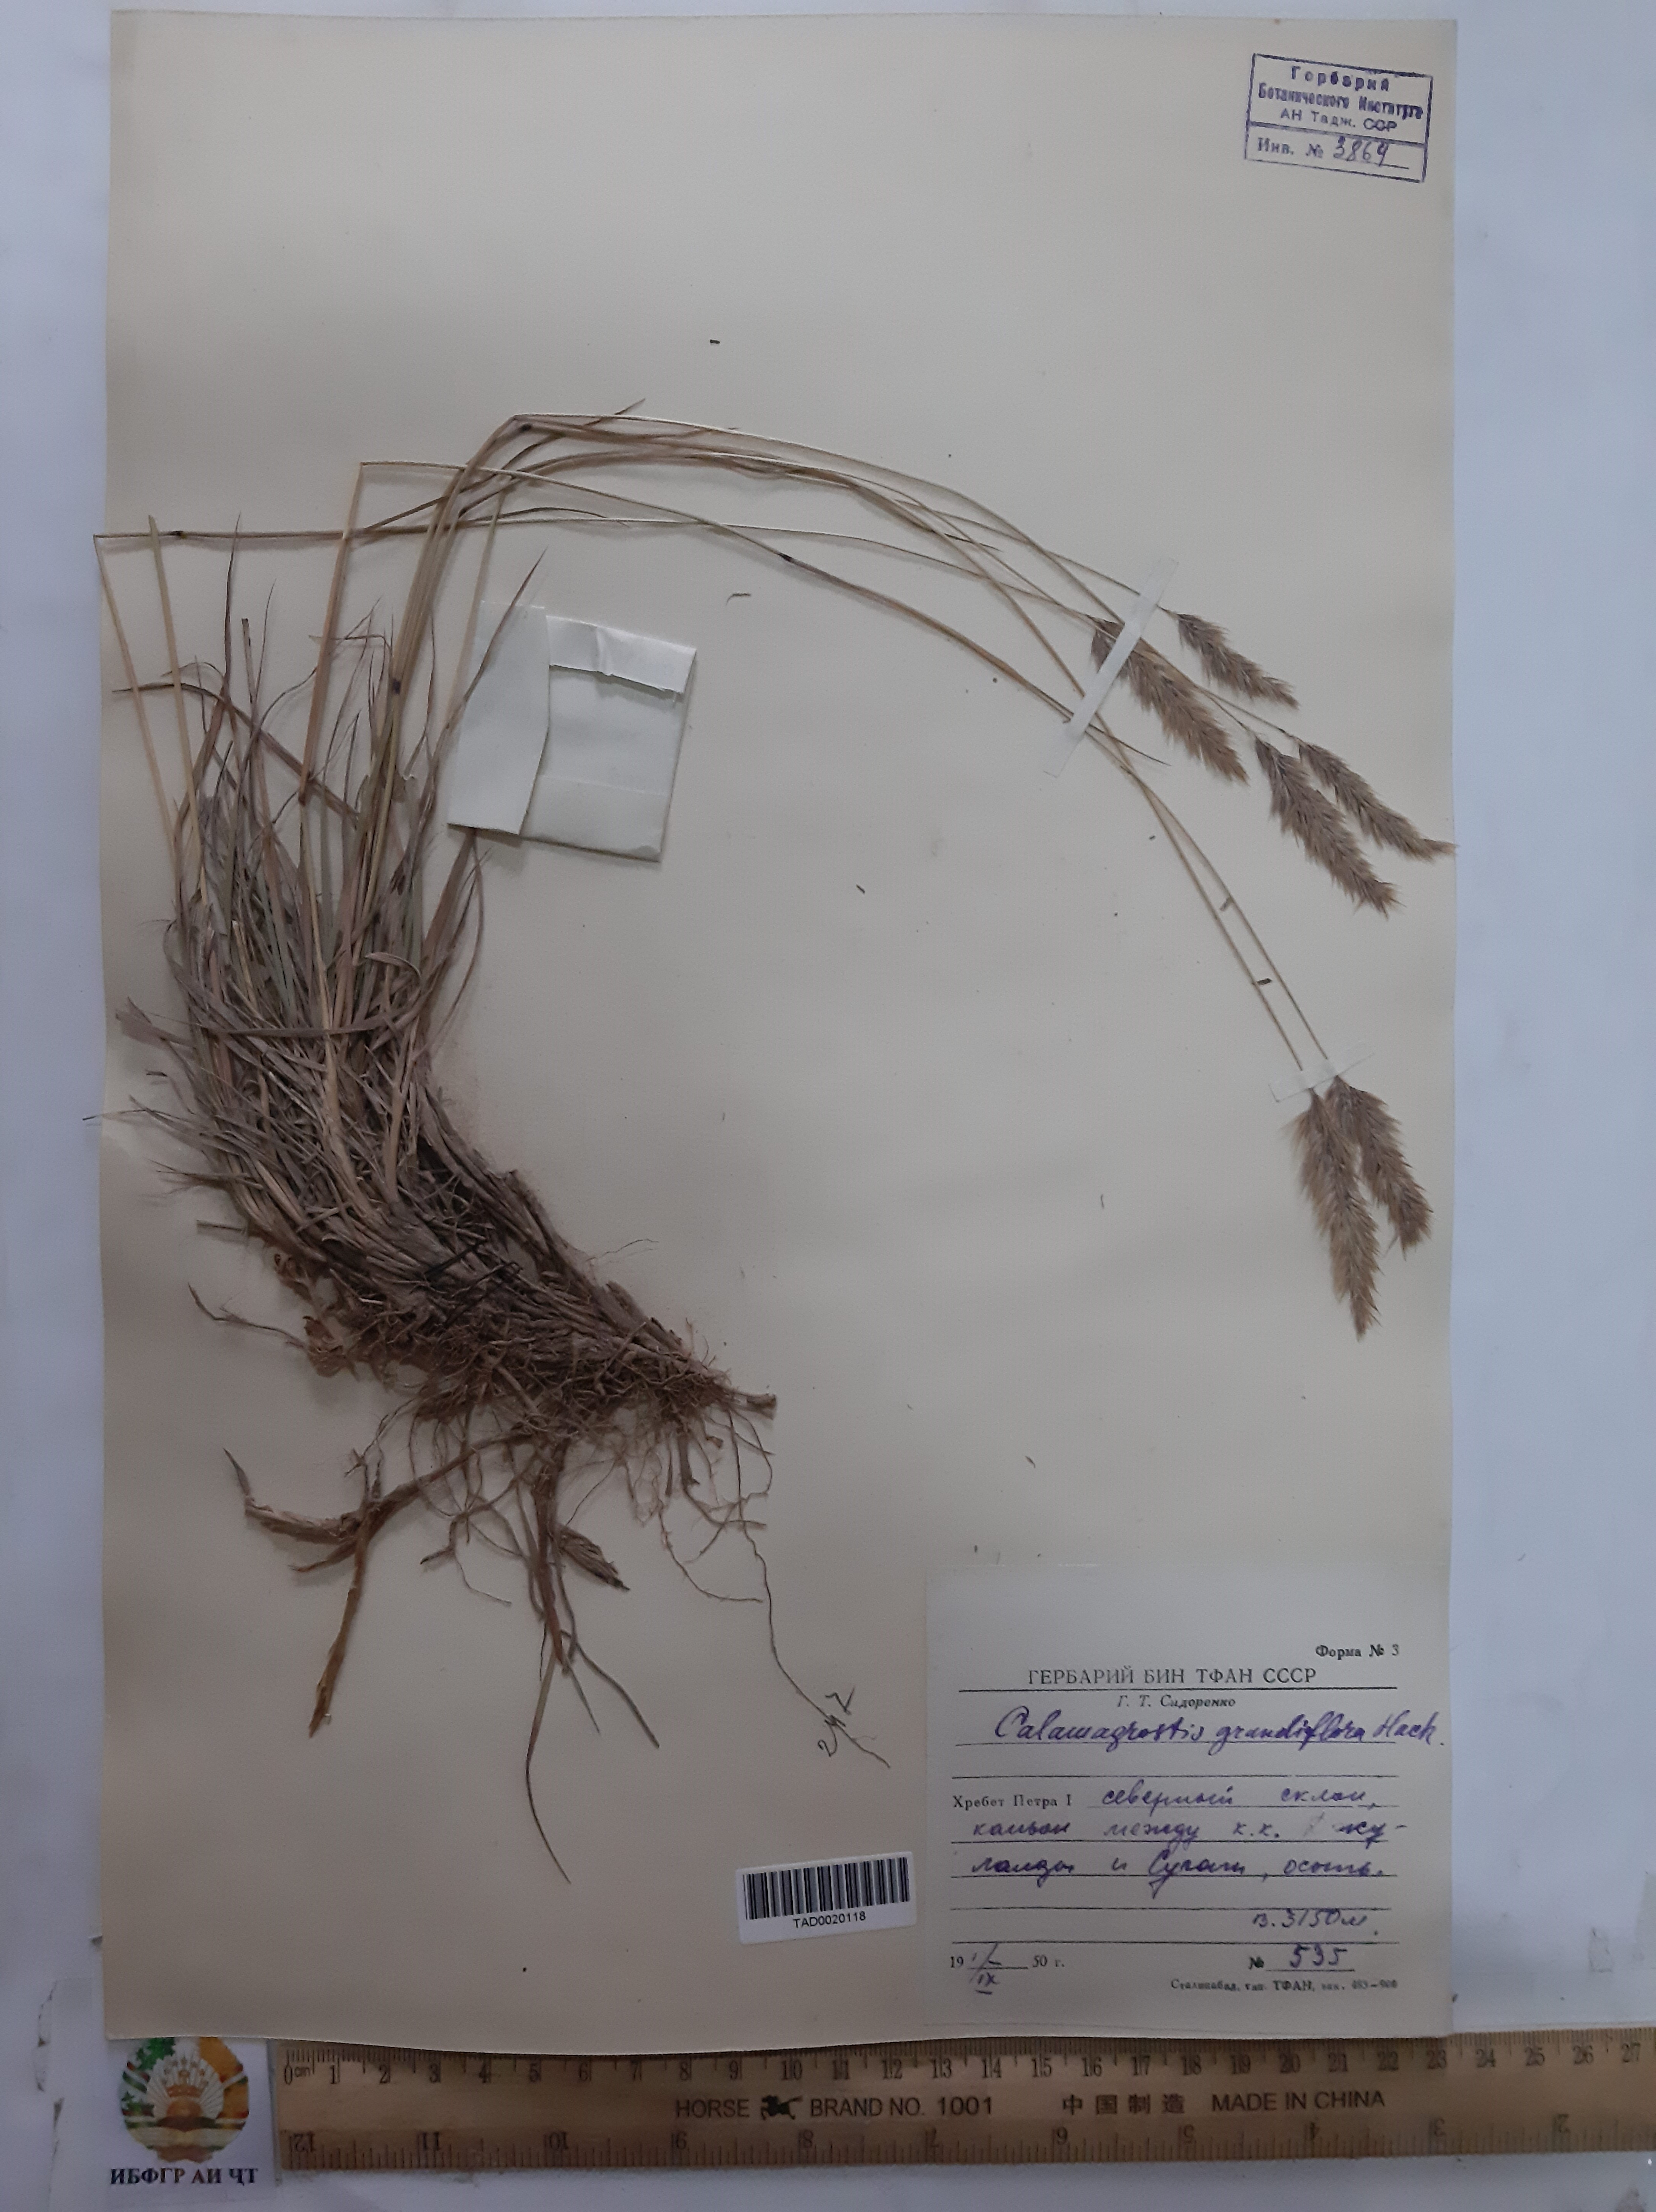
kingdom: Plantae
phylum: Tracheophyta
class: Liliopsida
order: Poales
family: Poaceae
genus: Calamagrostis
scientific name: Calamagrostis holciformis
